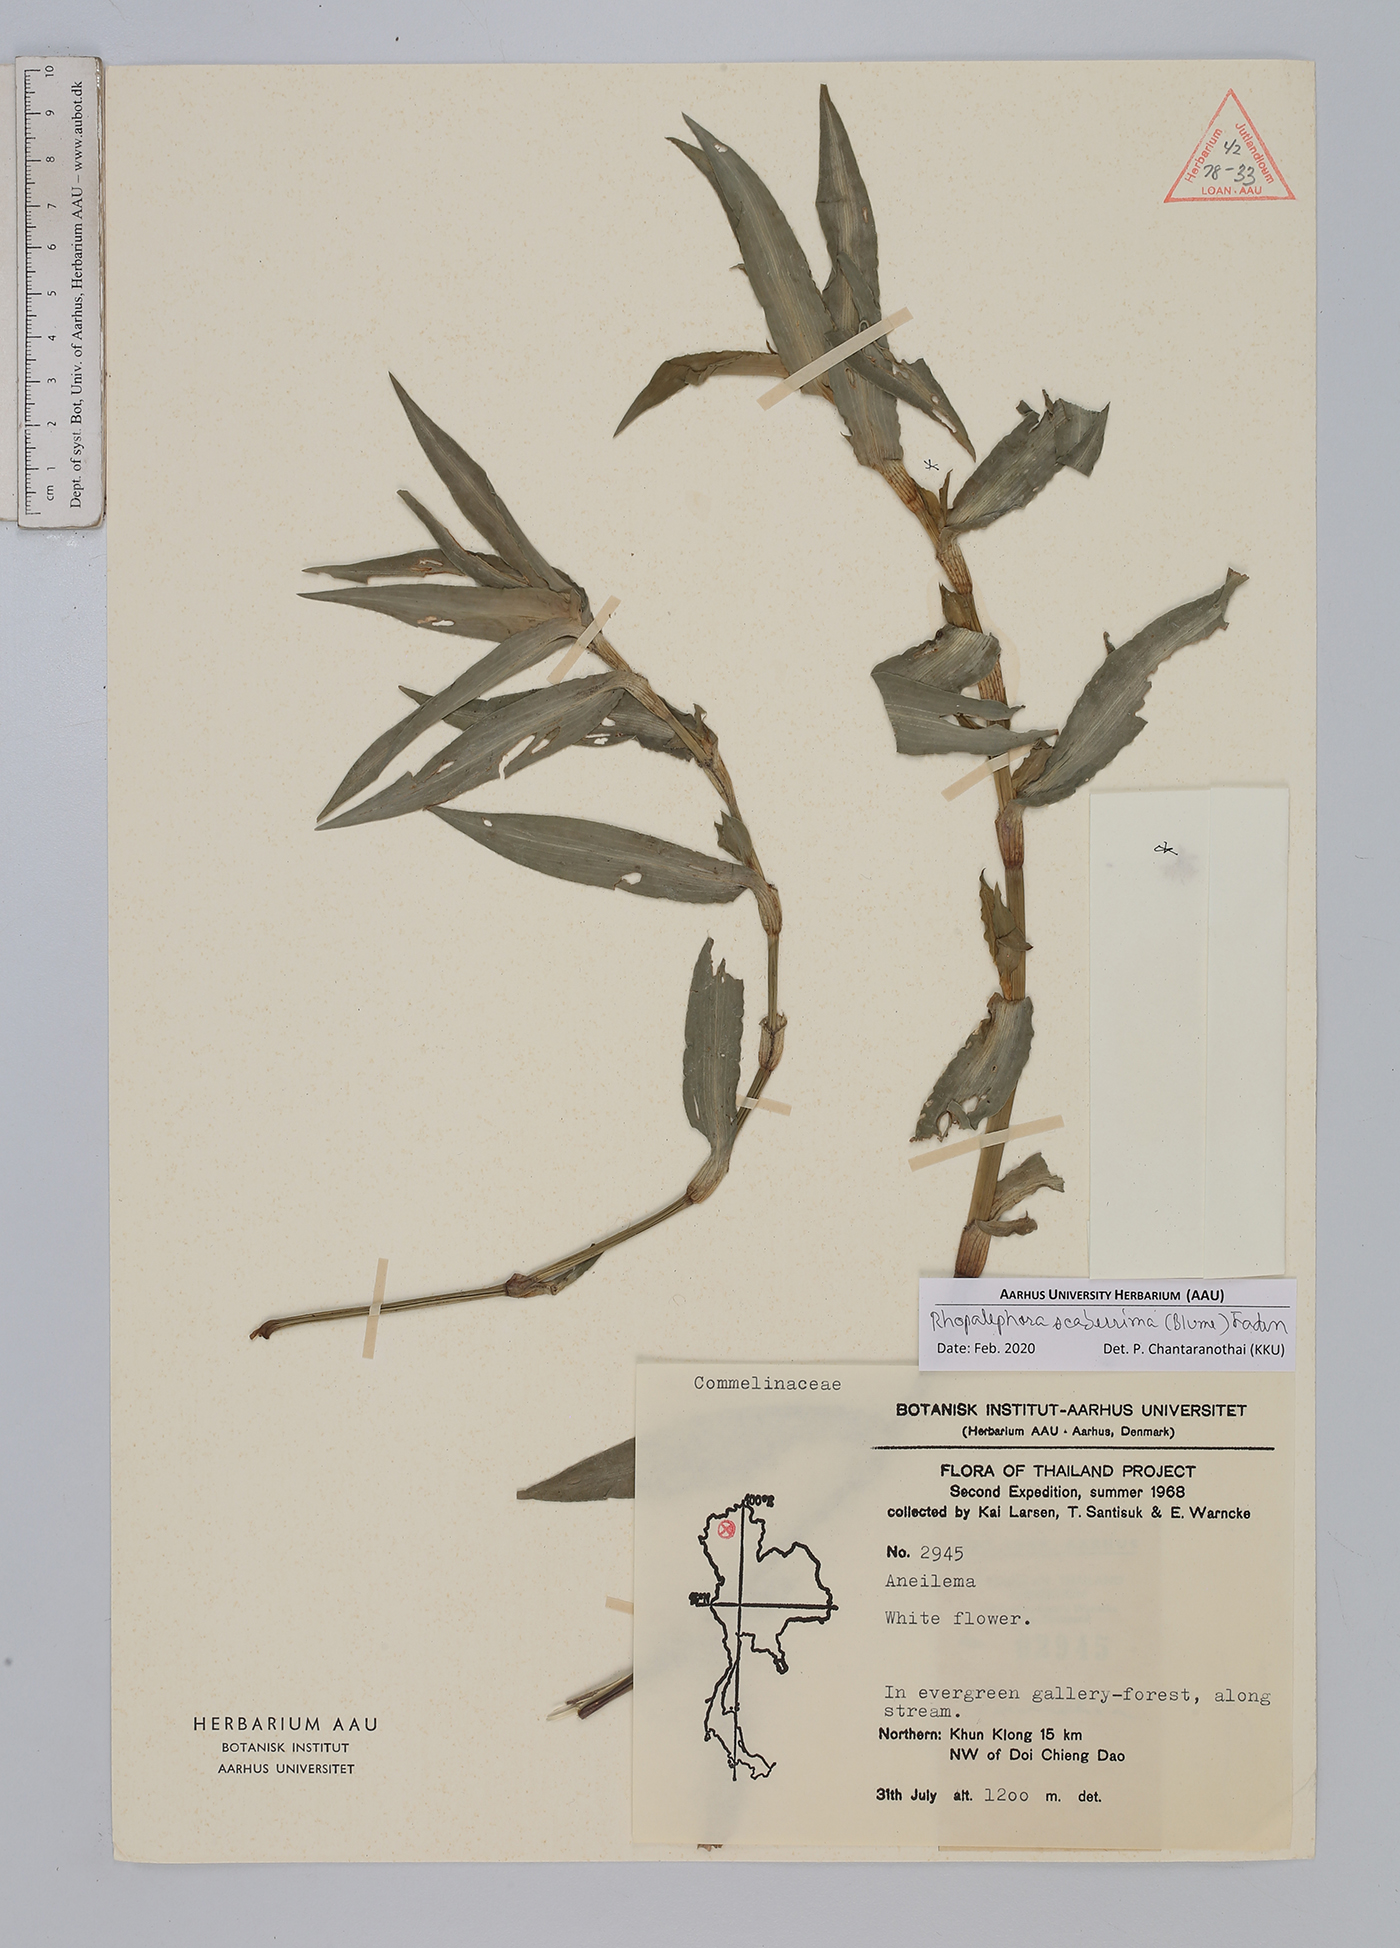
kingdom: Plantae
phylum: Tracheophyta
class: Liliopsida
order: Commelinales
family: Commelinaceae
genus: Rhopalephora
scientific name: Rhopalephora scaberrima
